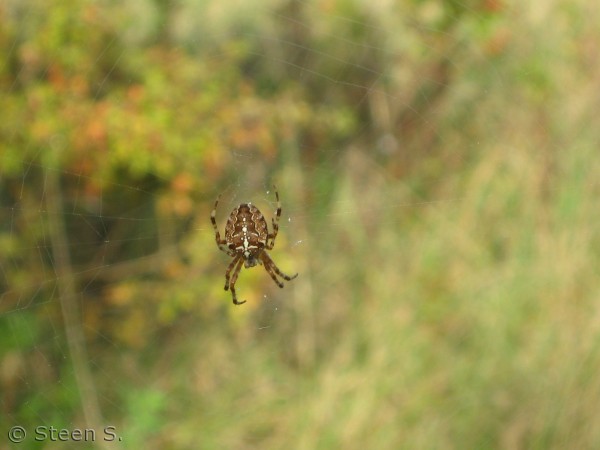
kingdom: Animalia
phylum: Arthropoda
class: Arachnida
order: Araneae
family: Araneidae
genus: Araneus
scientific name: Araneus diadematus
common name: Korsedderkop
